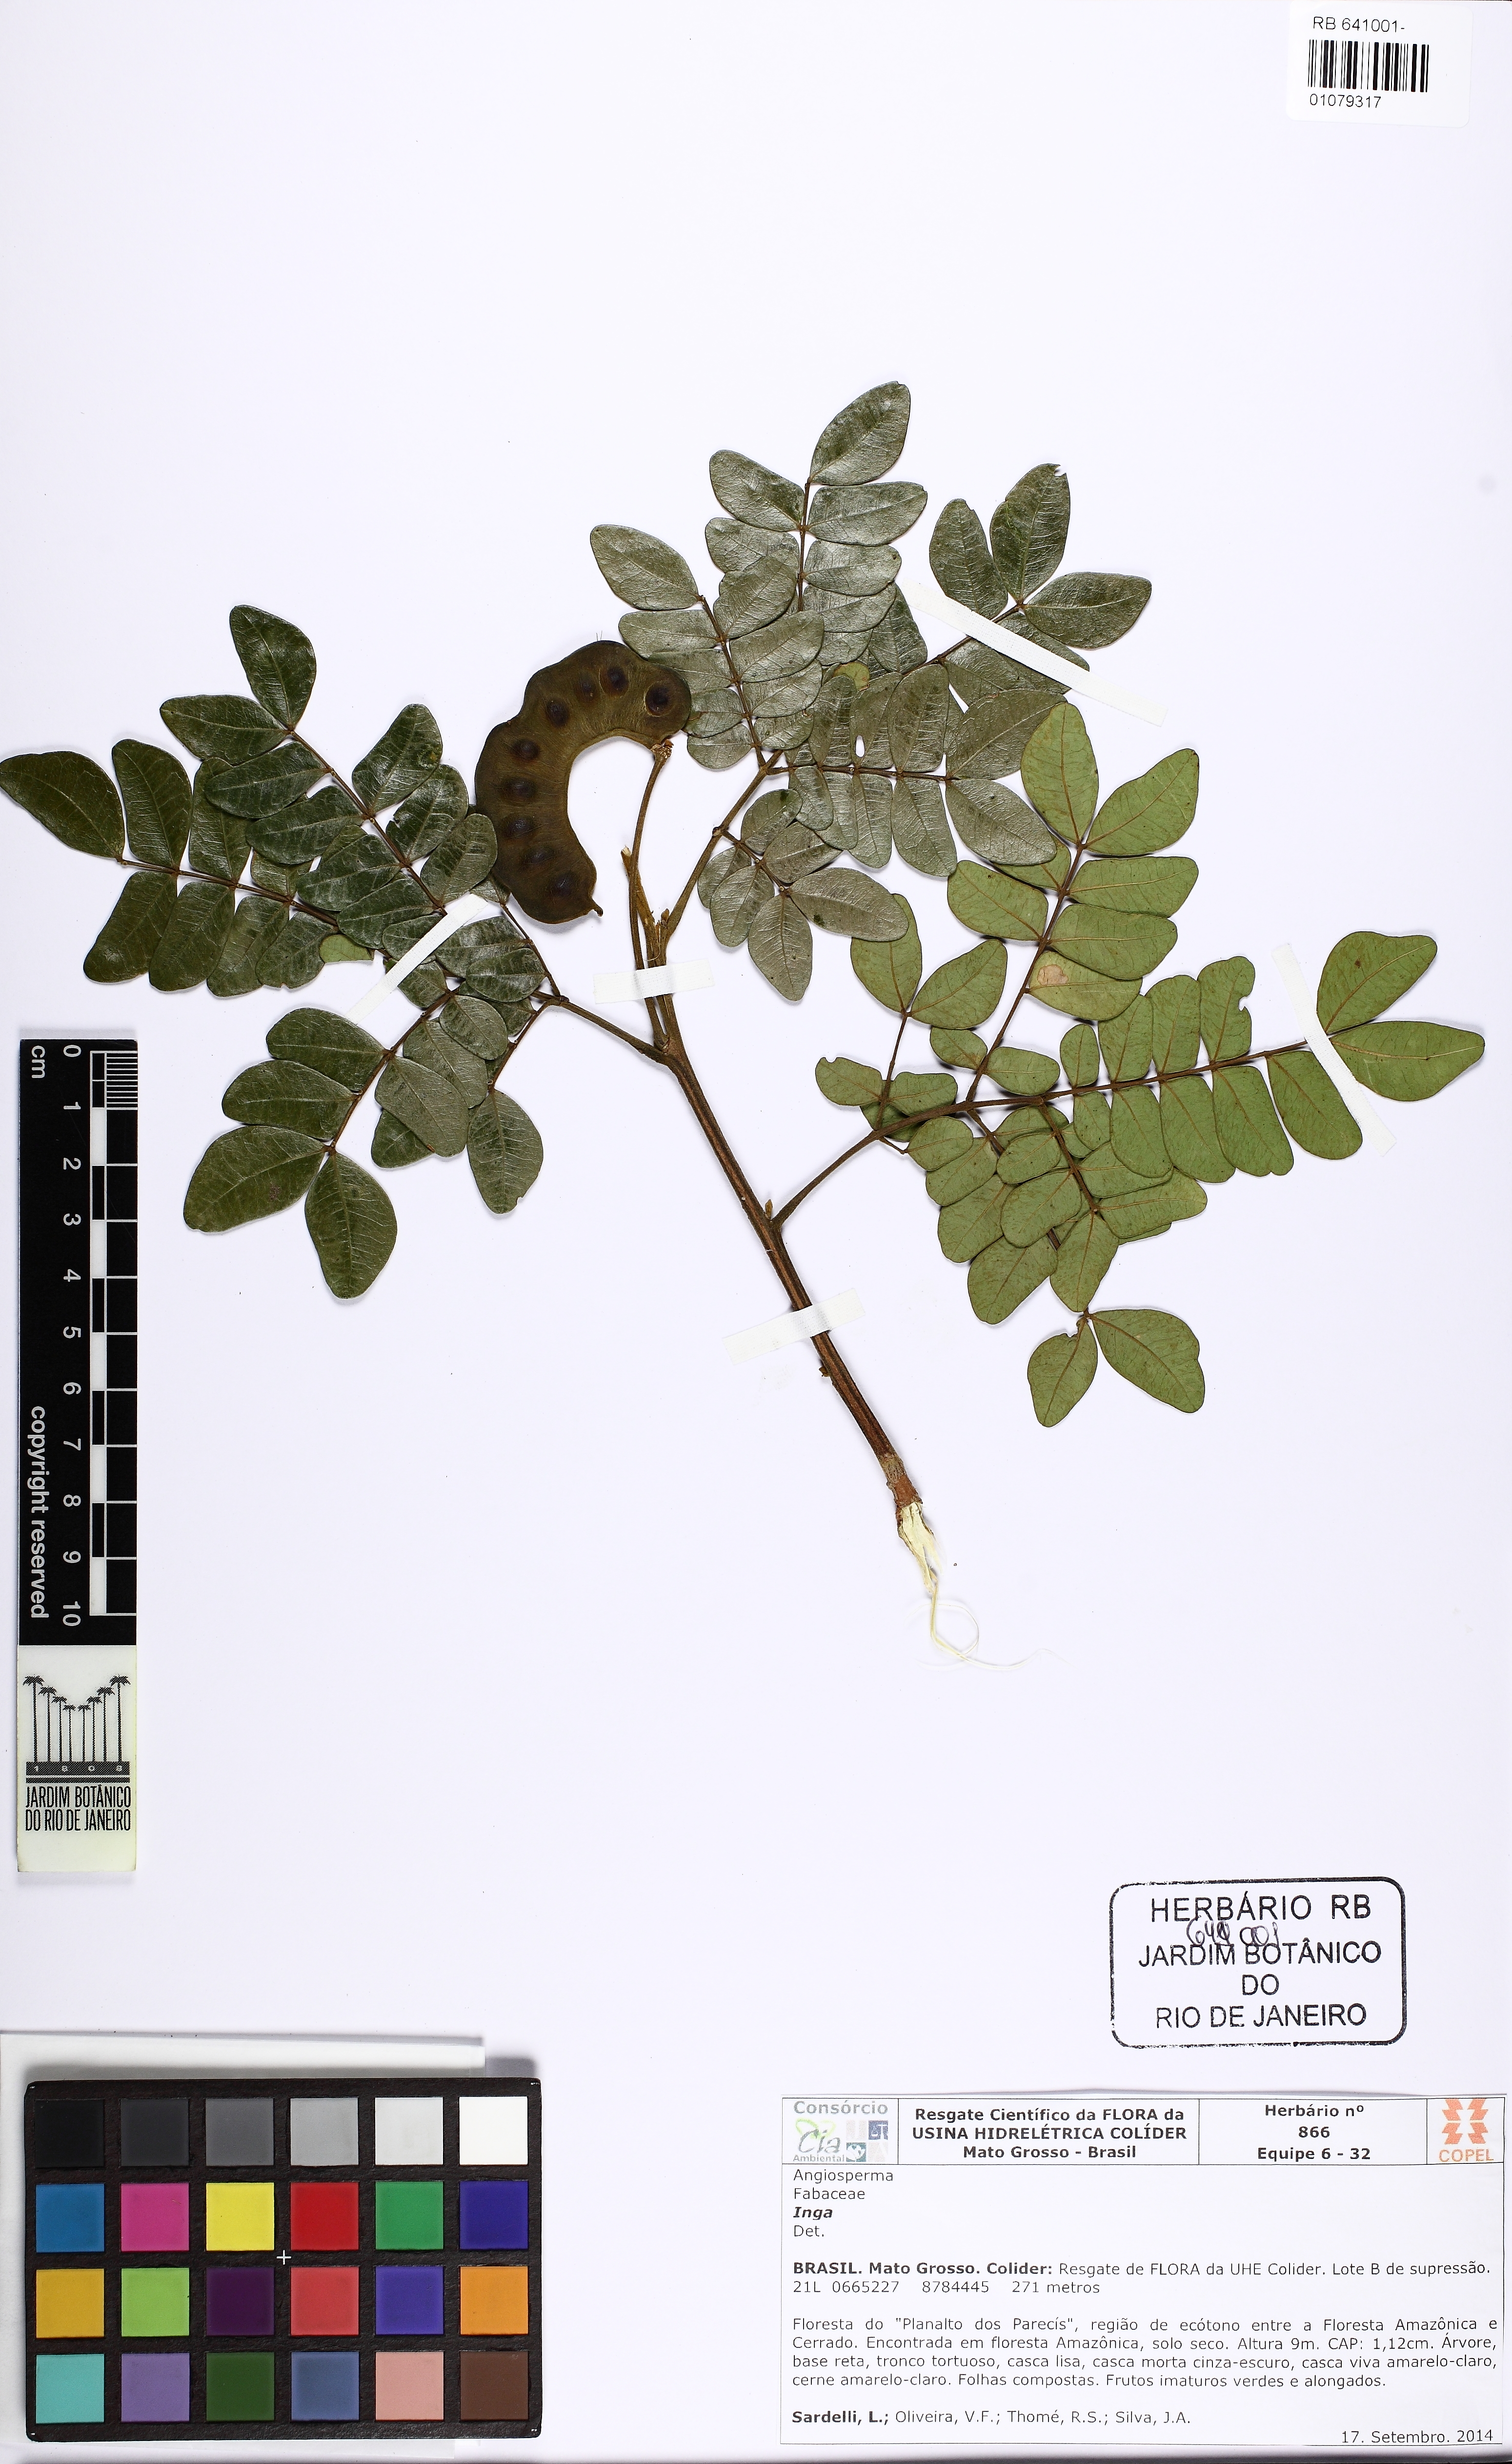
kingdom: Plantae
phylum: Tracheophyta
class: Magnoliopsida
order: Fabales
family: Fabaceae
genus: Jupunba
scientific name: Jupunba trapezifolia
